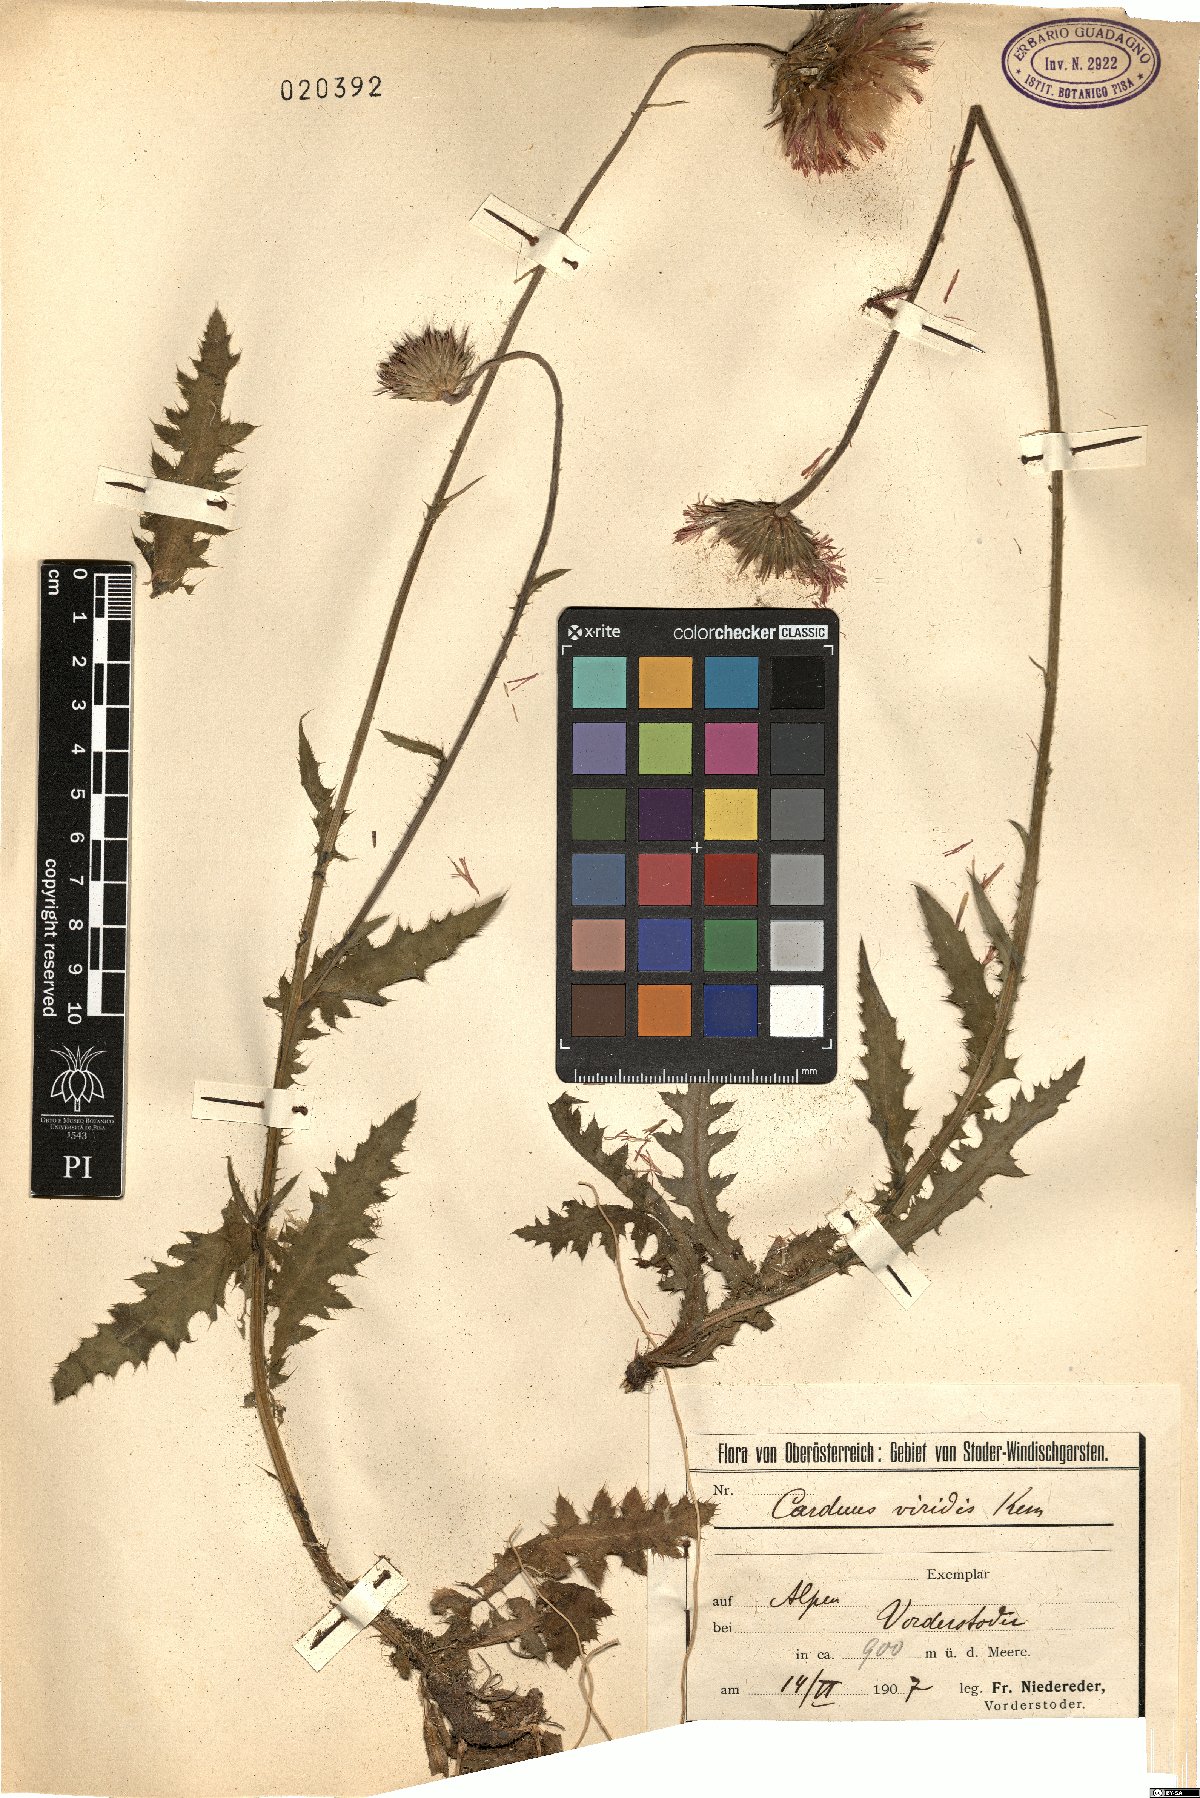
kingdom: Plantae
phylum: Tracheophyta
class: Magnoliopsida
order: Asterales
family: Asteraceae
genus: Carduus
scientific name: Carduus defloratus
